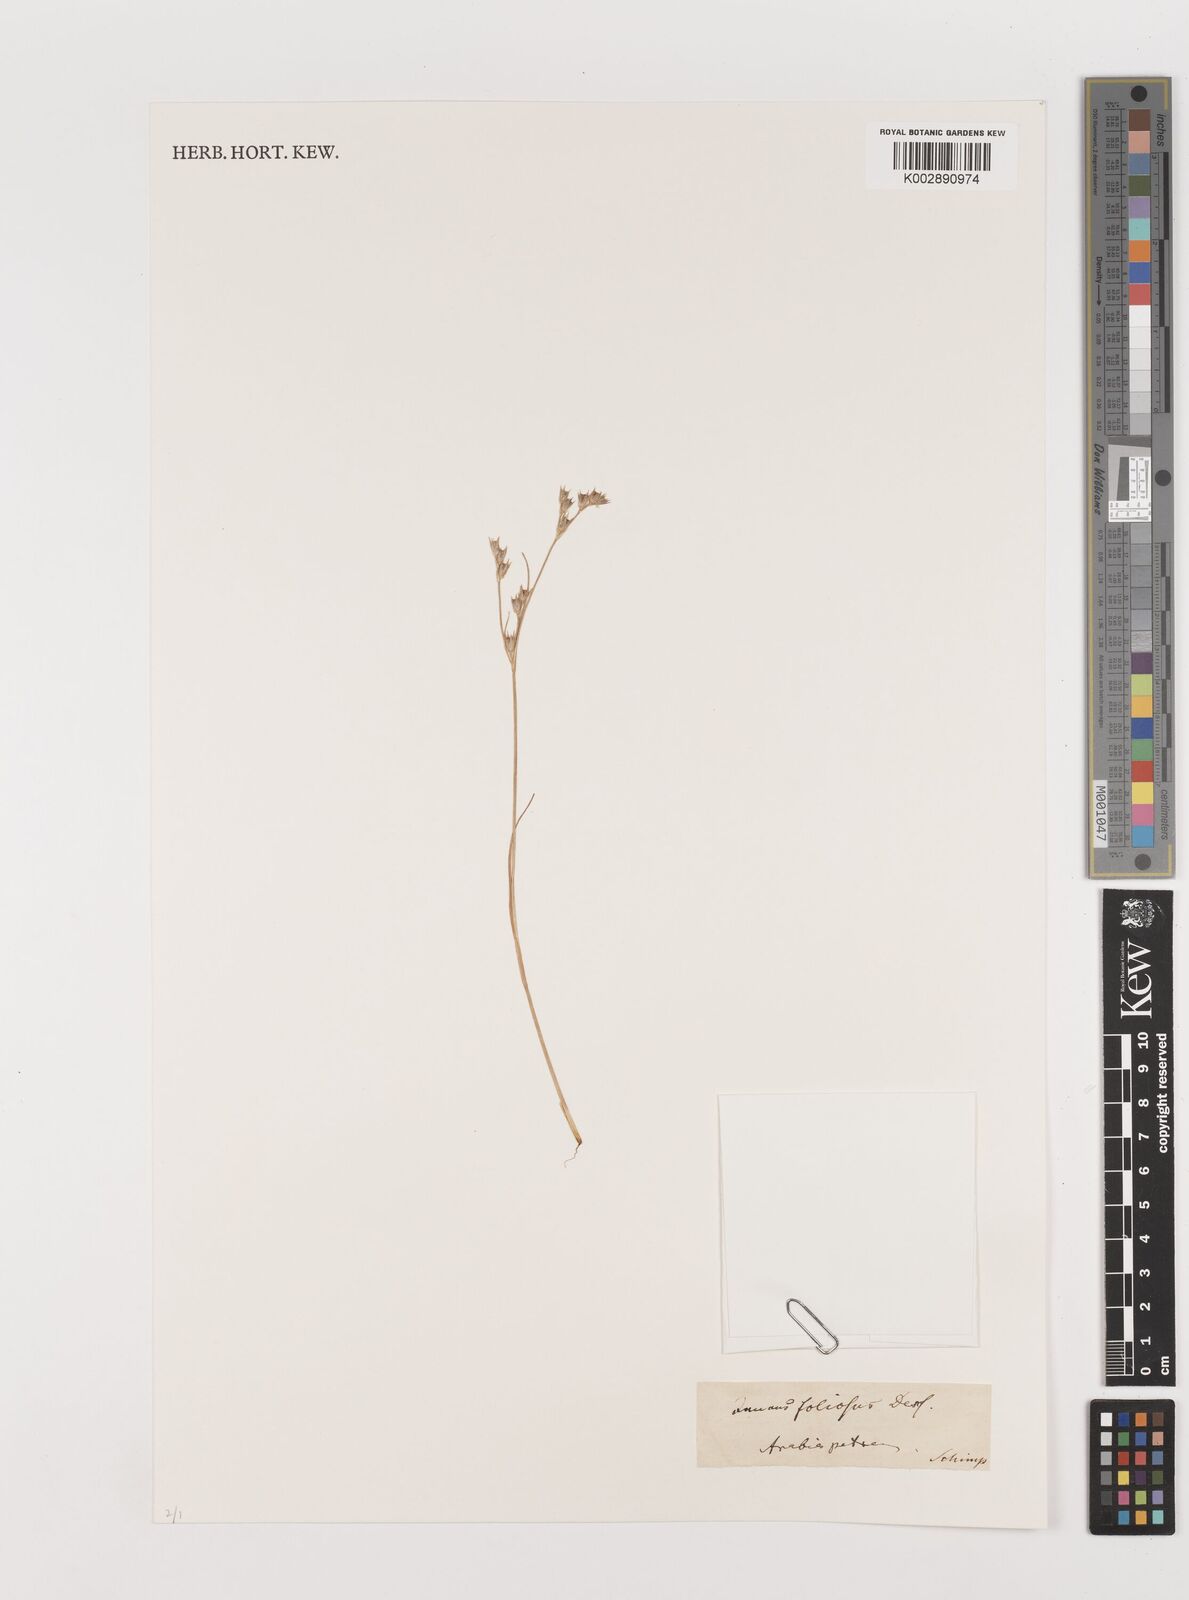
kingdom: Plantae
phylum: Tracheophyta
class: Liliopsida
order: Poales
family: Juncaceae
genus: Juncus
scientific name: Juncus foliosus
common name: Leafy rush
